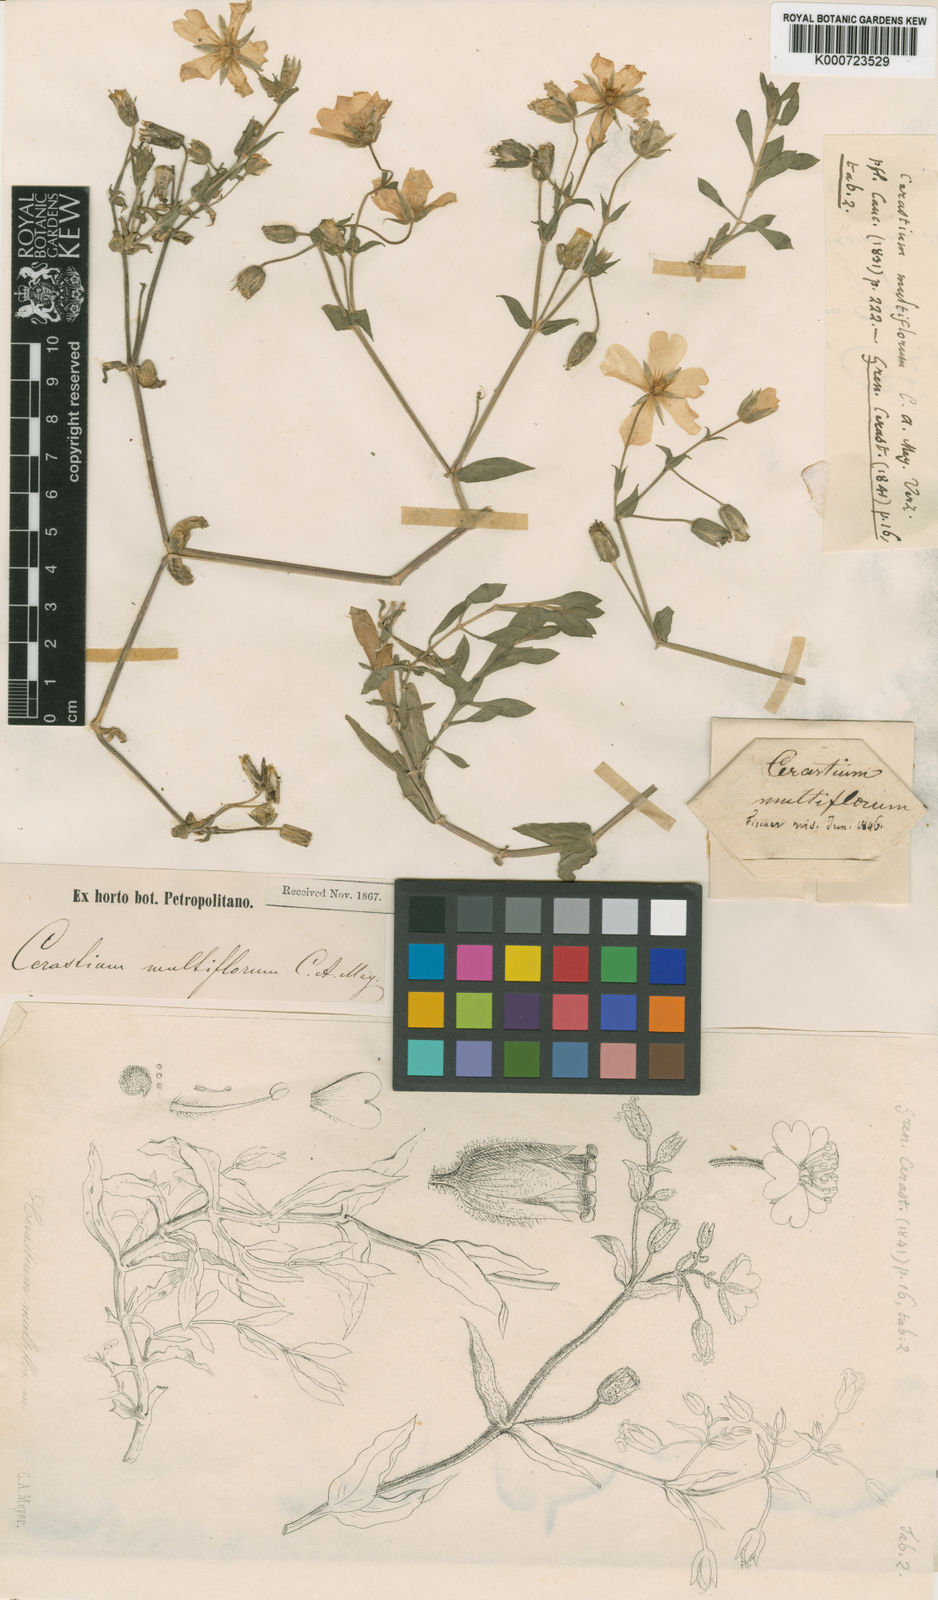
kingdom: Plantae
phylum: Tracheophyta
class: Magnoliopsida
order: Caryophyllales
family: Caryophyllaceae
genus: Cerastium
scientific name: Cerastium multiflorum
